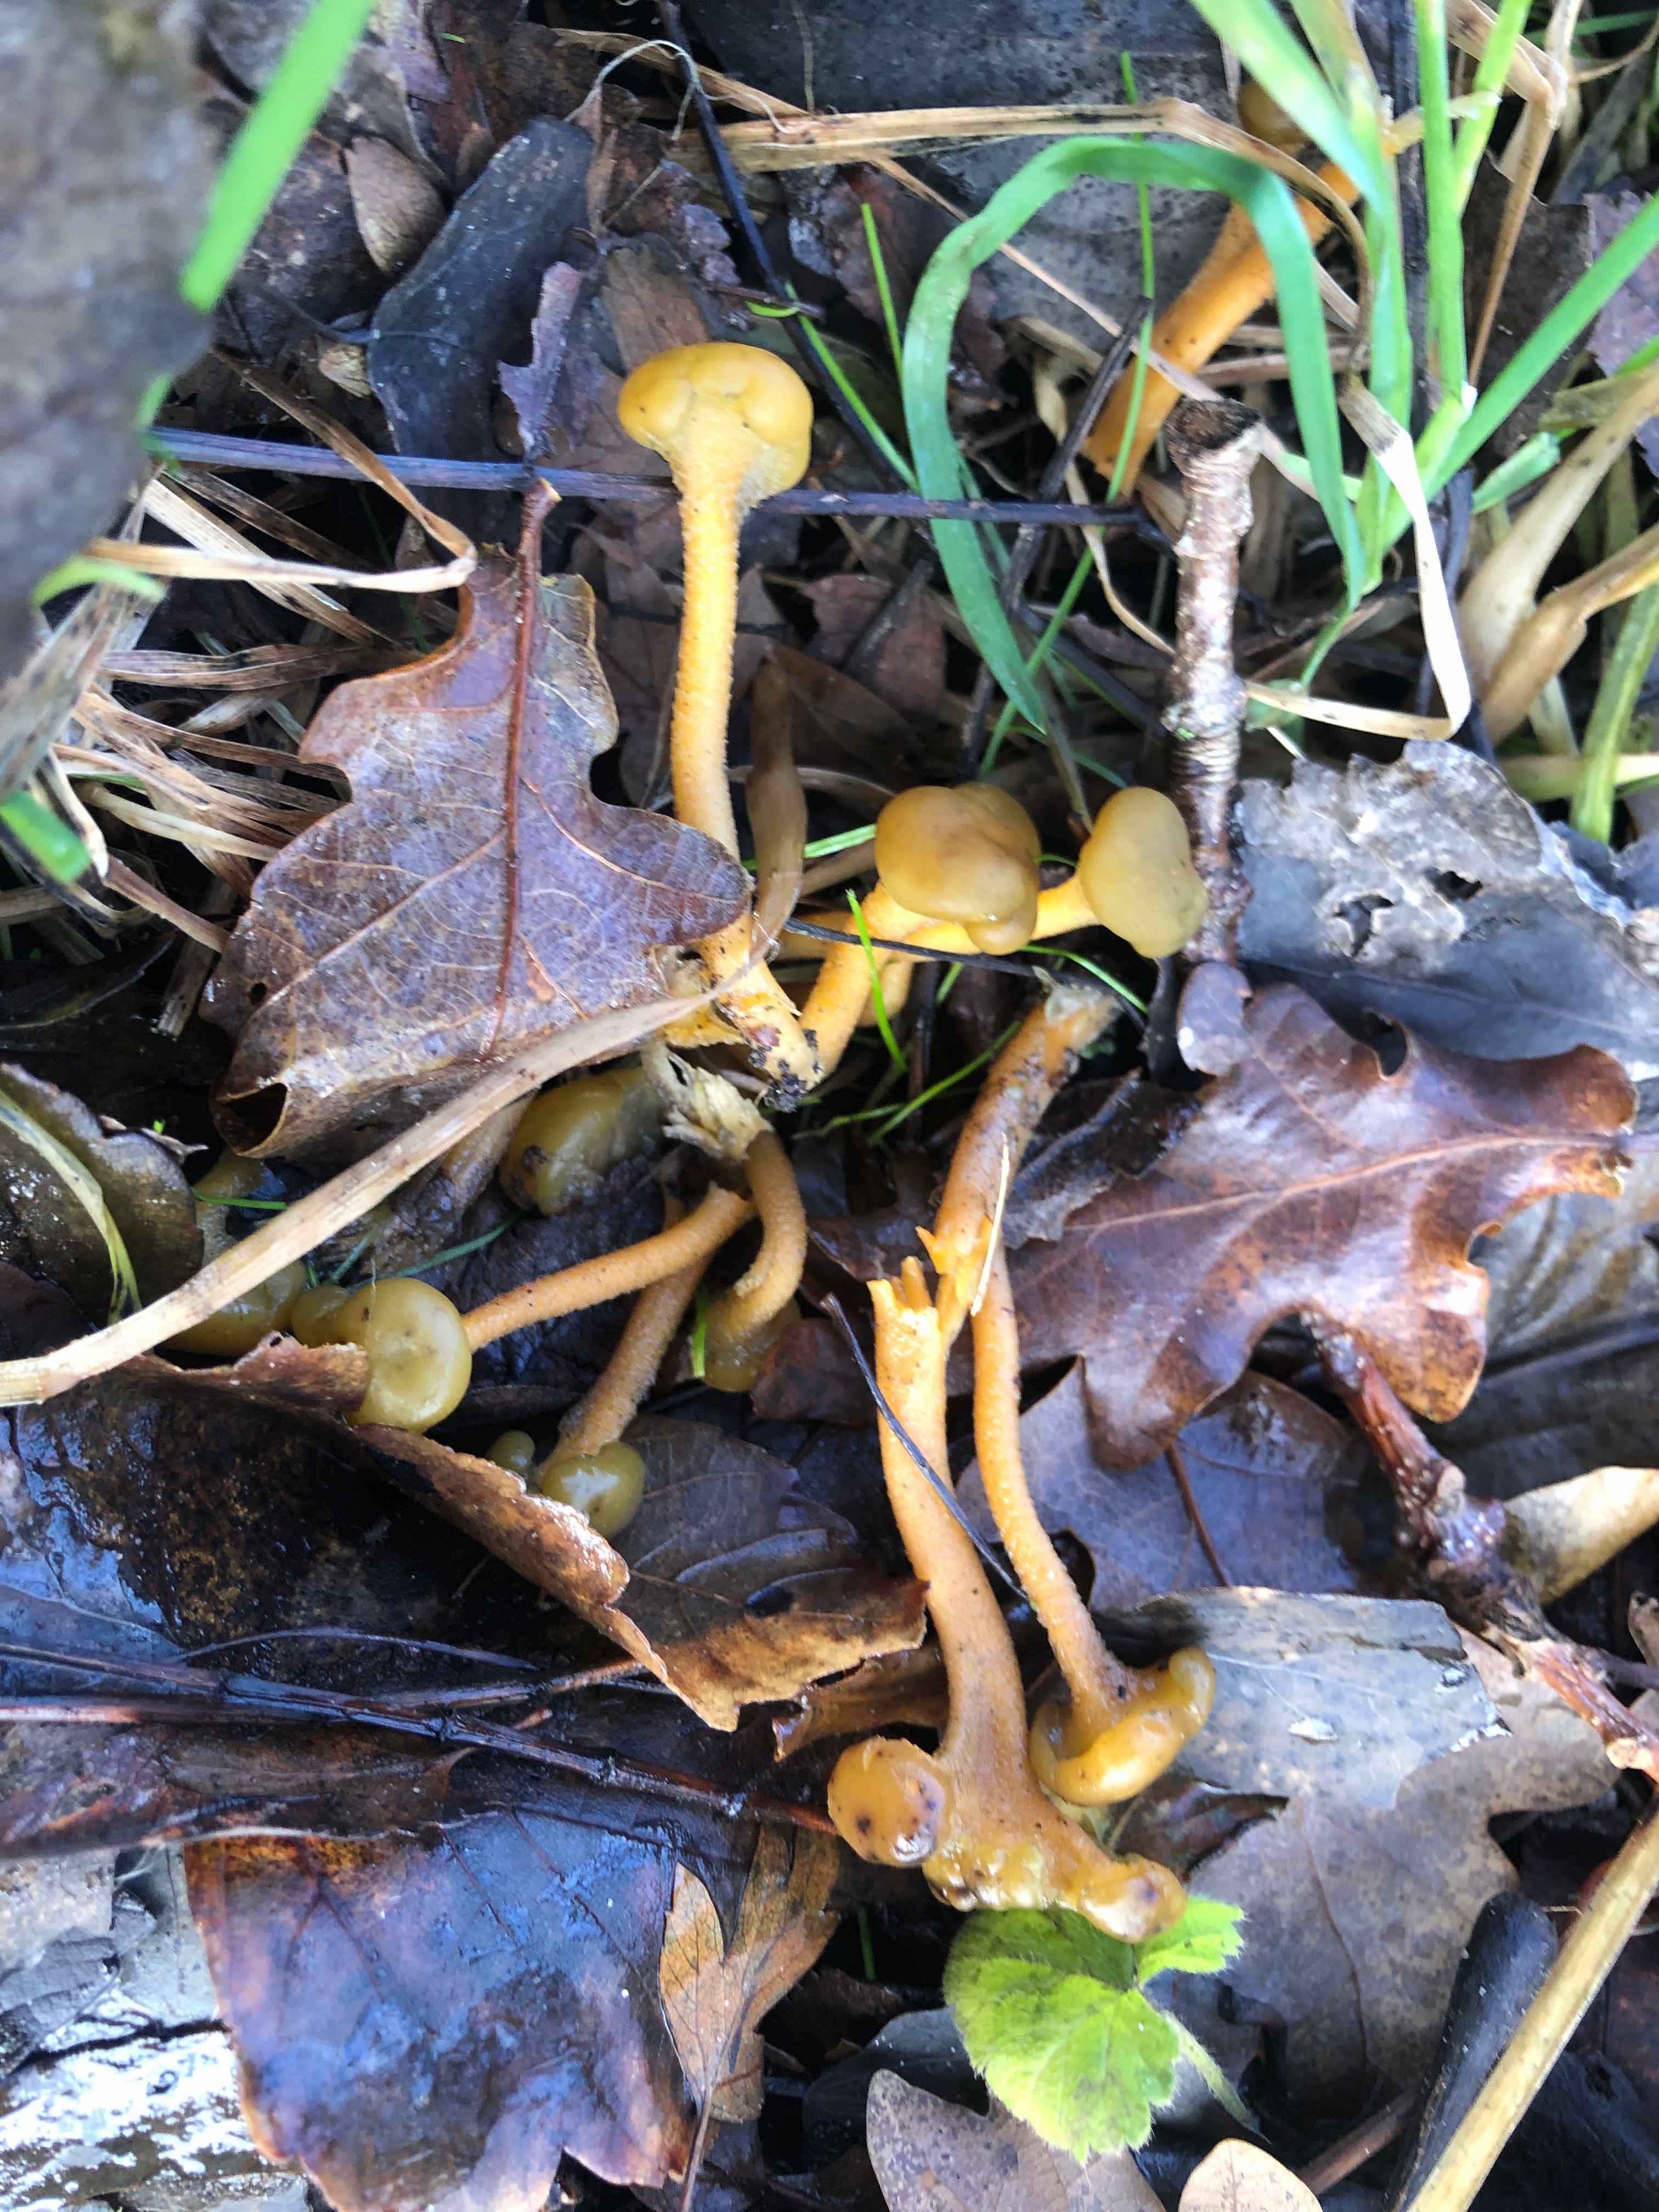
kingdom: Fungi
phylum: Ascomycota
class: Leotiomycetes
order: Leotiales
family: Leotiaceae
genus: Leotia
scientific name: Leotia lubrica
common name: ravsvamp
